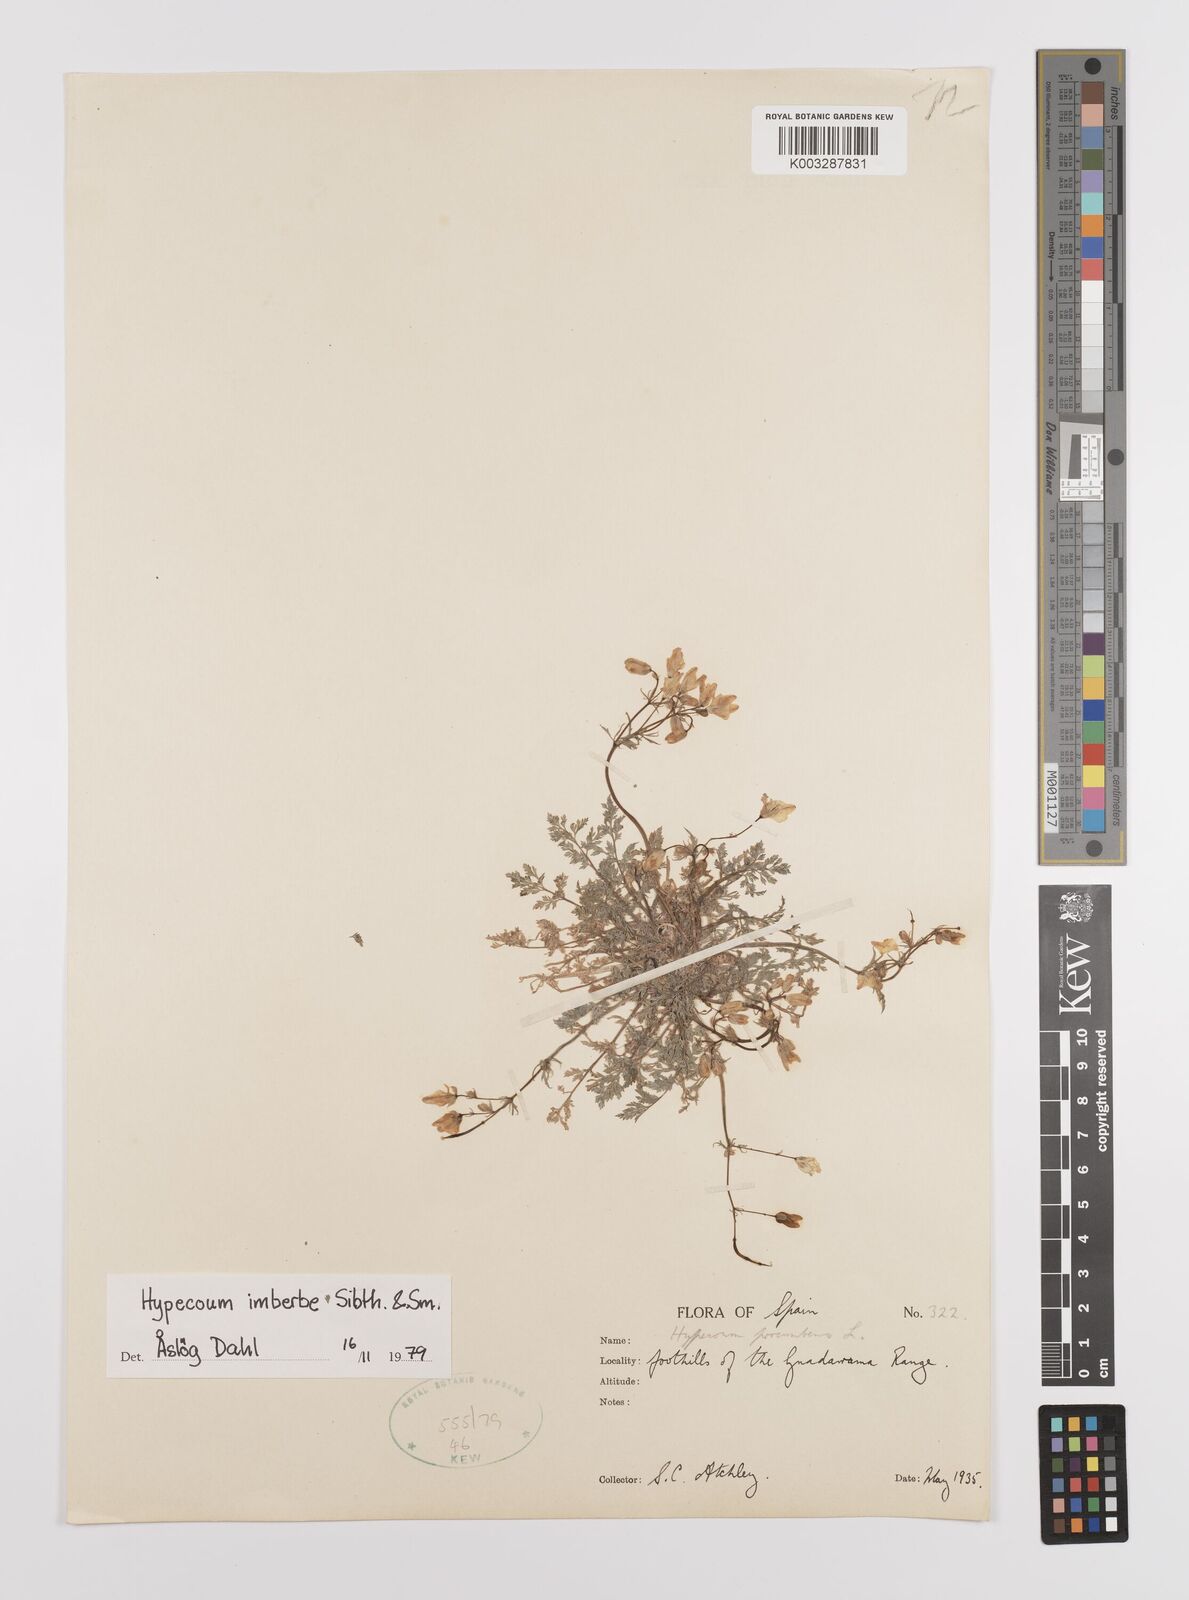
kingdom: Plantae
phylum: Tracheophyta
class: Magnoliopsida
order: Ranunculales
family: Papaveraceae
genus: Hypecoum
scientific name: Hypecoum imberbe
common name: Sicklefruit hypecoum
